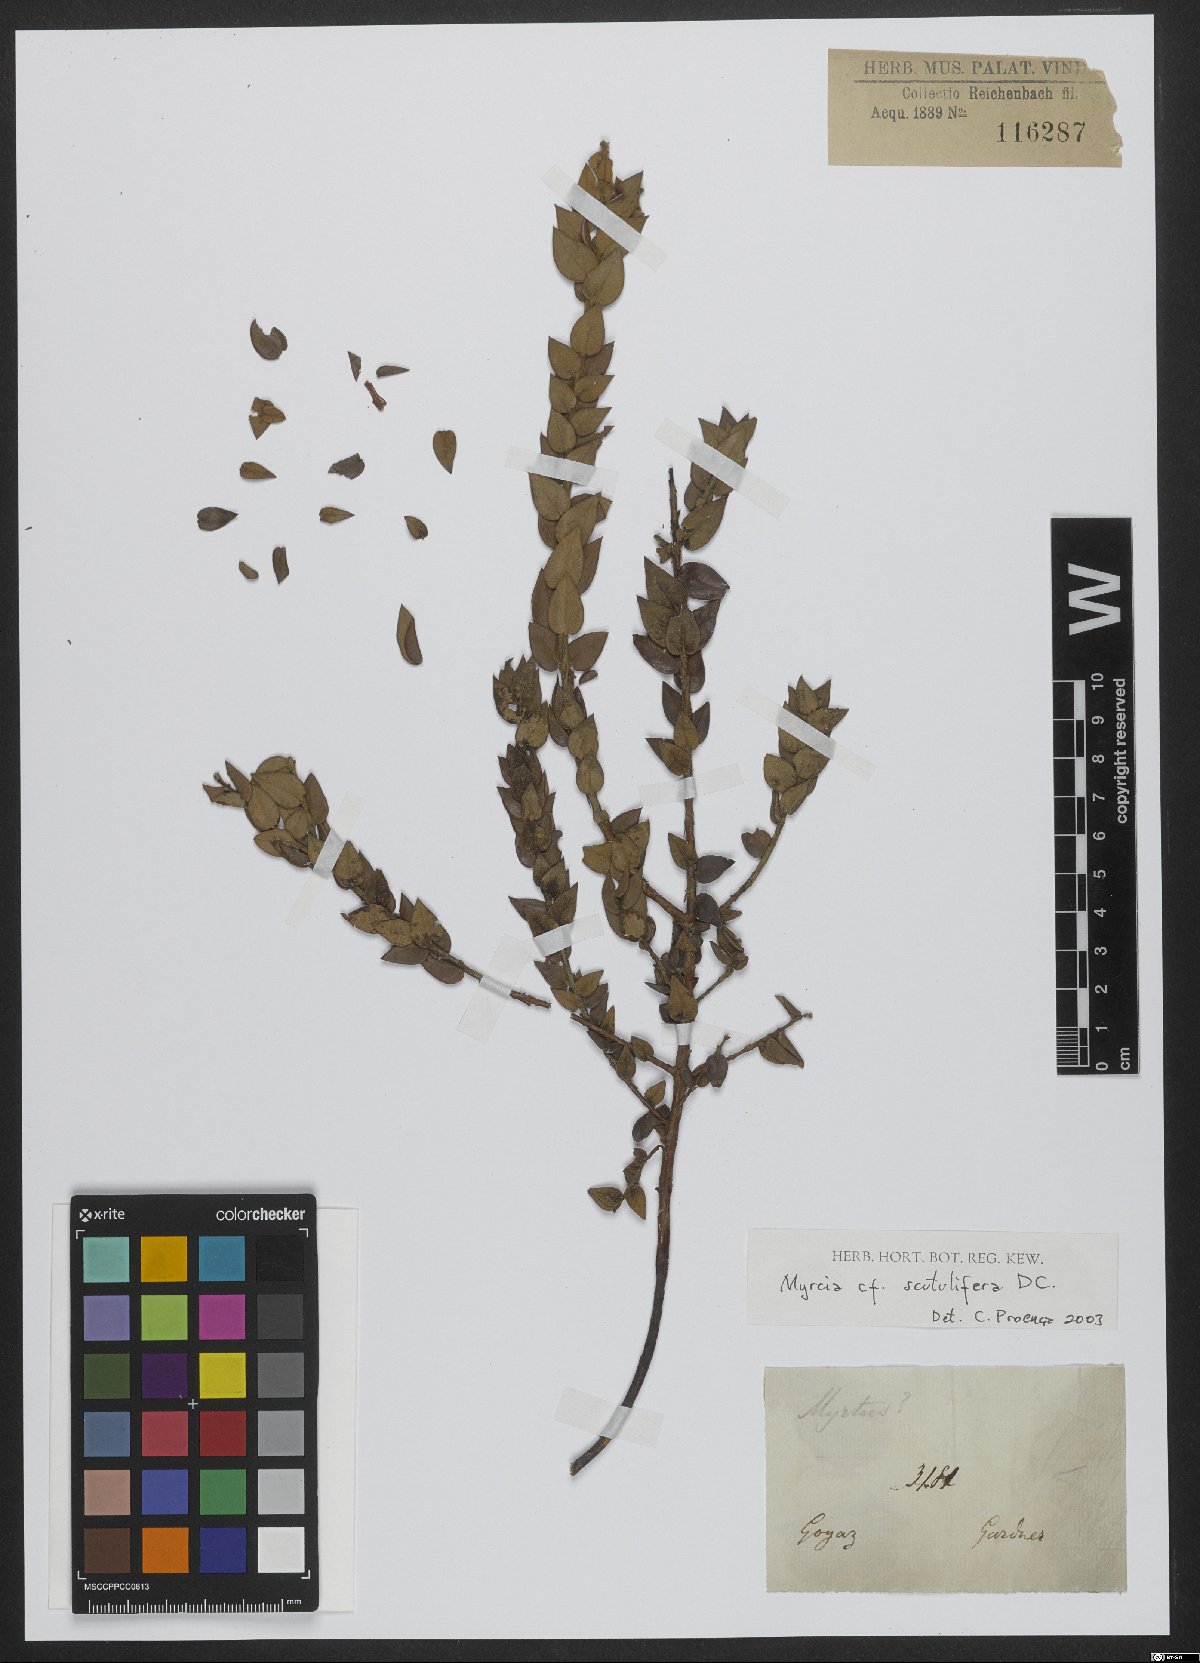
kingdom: Plantae
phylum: Tracheophyta
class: Magnoliopsida
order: Myrtales
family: Myrtaceae
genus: Myrcia
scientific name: Myrcia racemulosa
